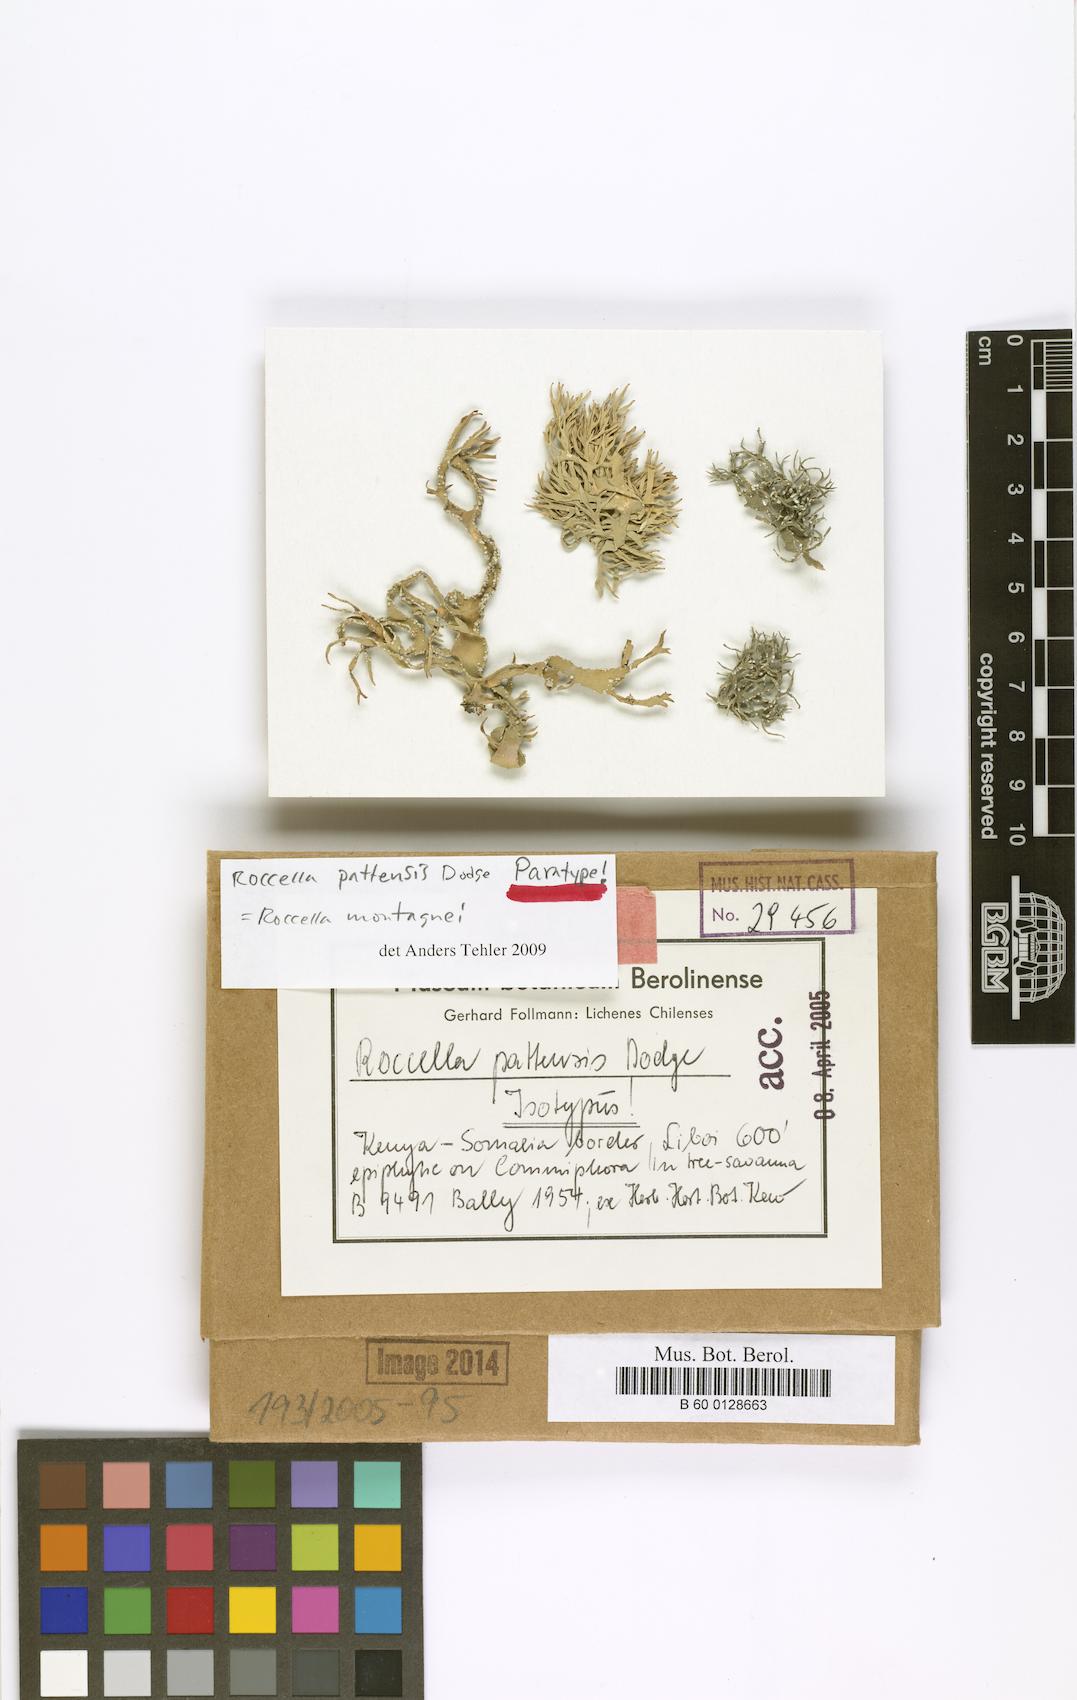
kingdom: Fungi
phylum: Ascomycota
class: Arthoniomycetes
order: Arthoniales
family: Roccellaceae
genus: Roccella
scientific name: Roccella linearis
